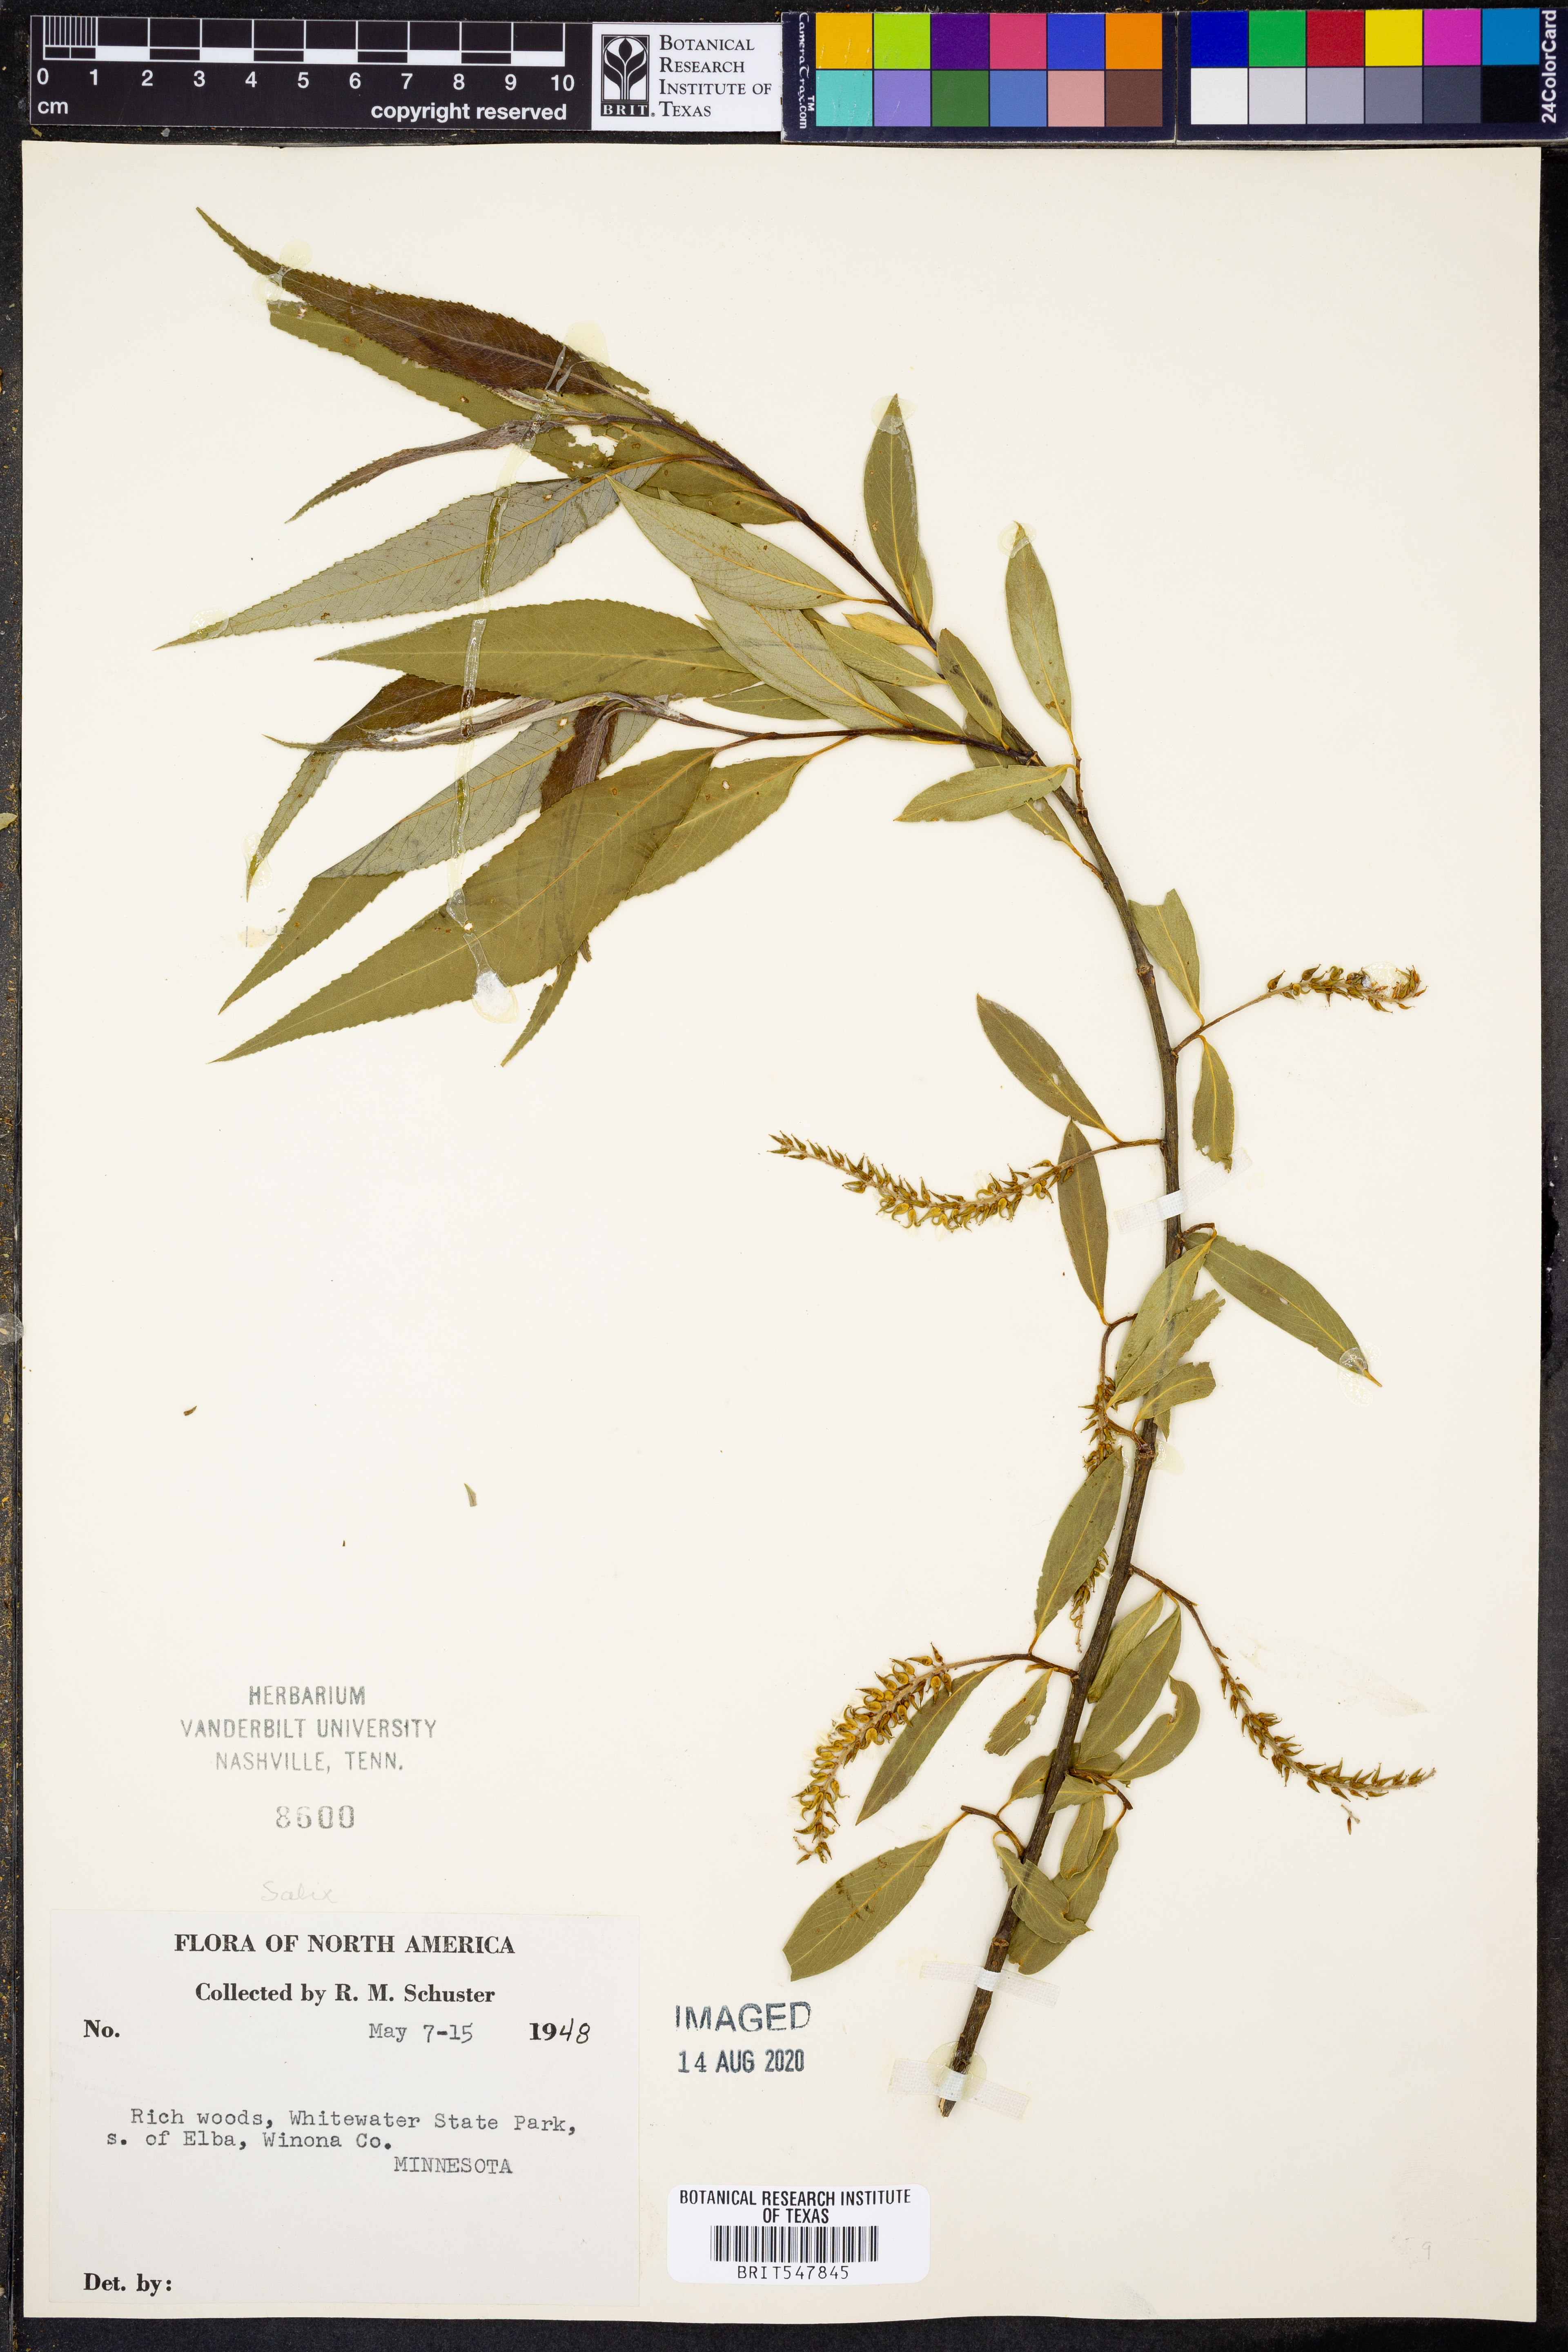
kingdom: Plantae
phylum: Tracheophyta
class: Magnoliopsida
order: Malpighiales
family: Salicaceae
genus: Salix
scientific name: Salix
